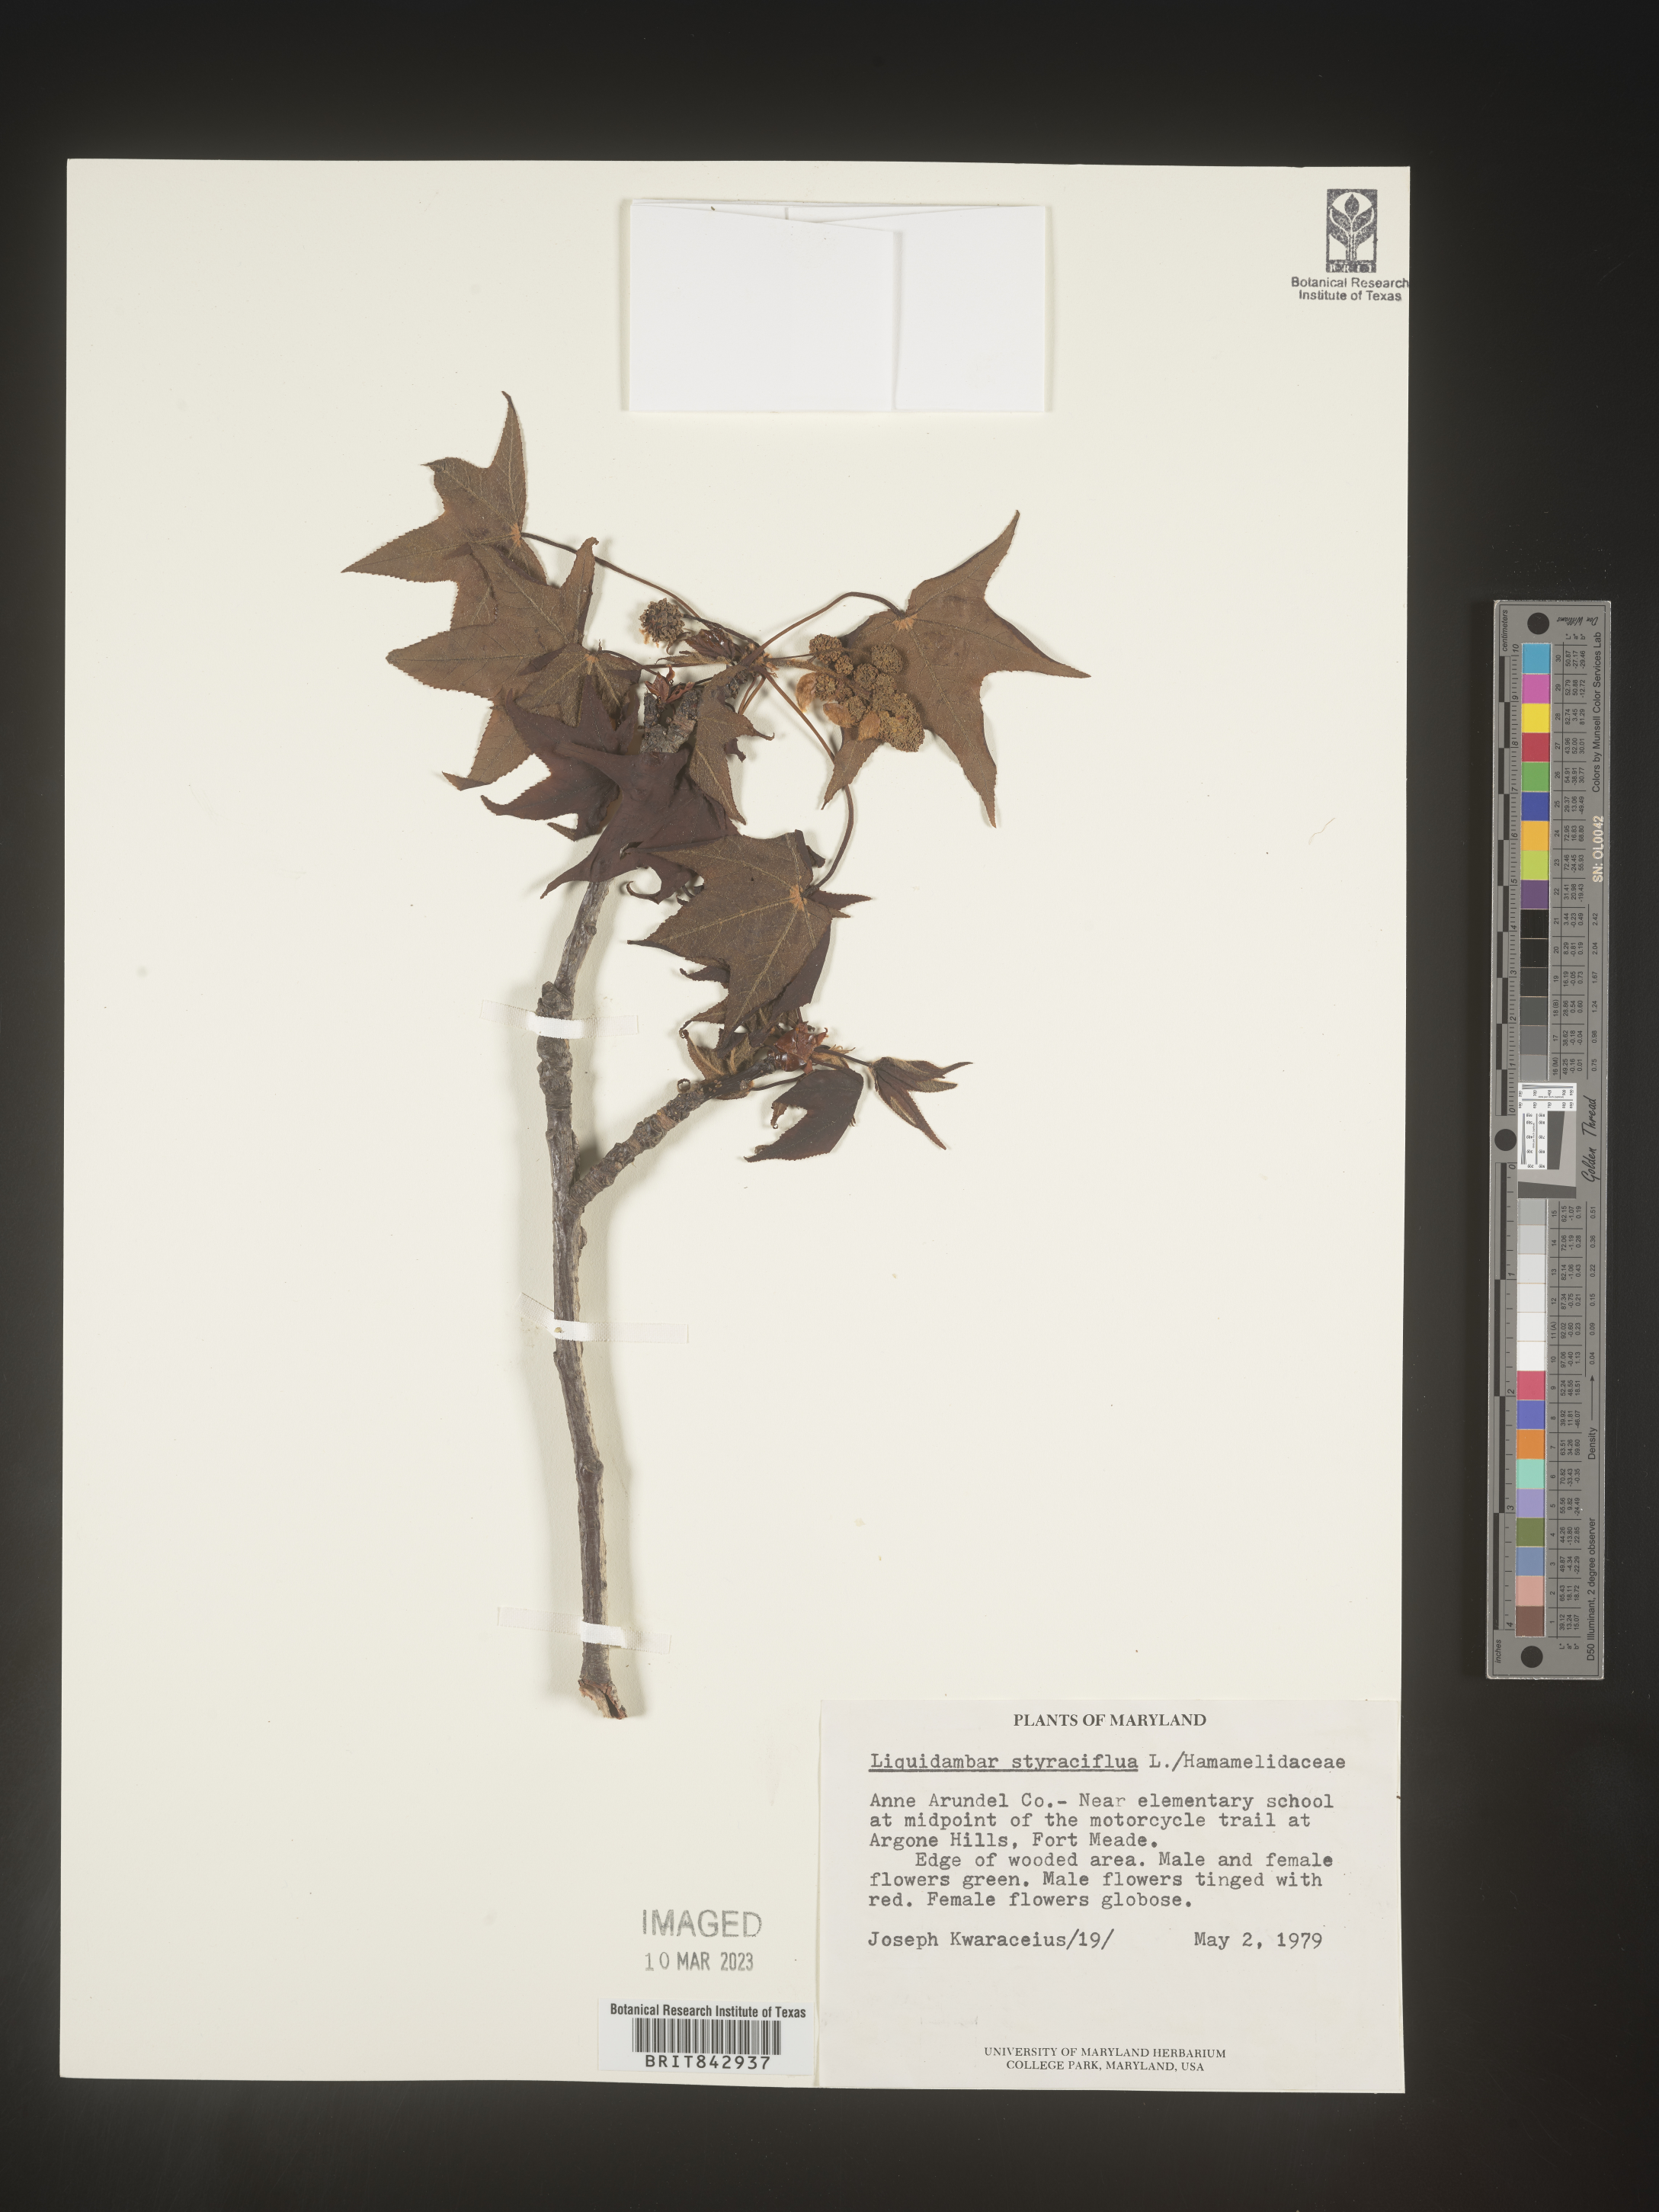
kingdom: Plantae
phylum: Tracheophyta
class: Magnoliopsida
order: Saxifragales
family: Altingiaceae
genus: Liquidambar
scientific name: Liquidambar styraciflua
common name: Sweet gum
